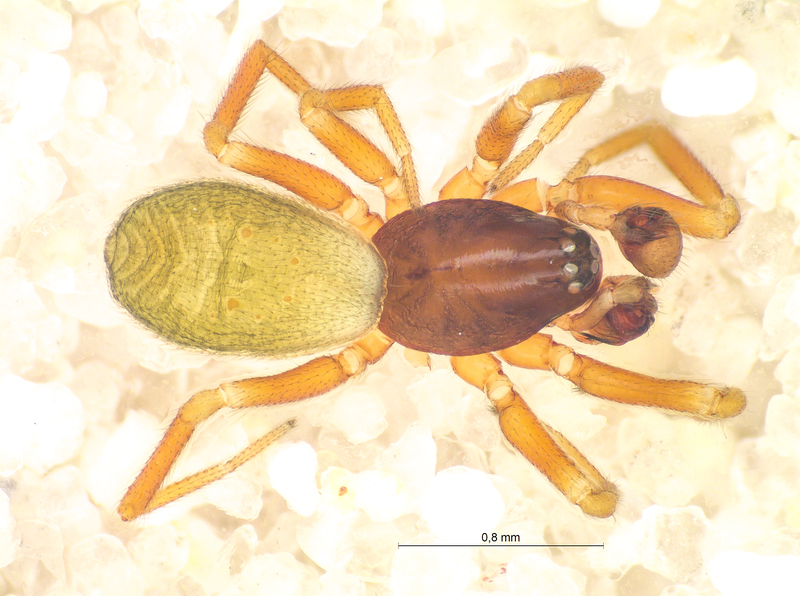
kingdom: Animalia
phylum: Arthropoda
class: Arachnida
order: Araneae
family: Linyphiidae
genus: Walckenaeria
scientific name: Walckenaeria dysderoides
